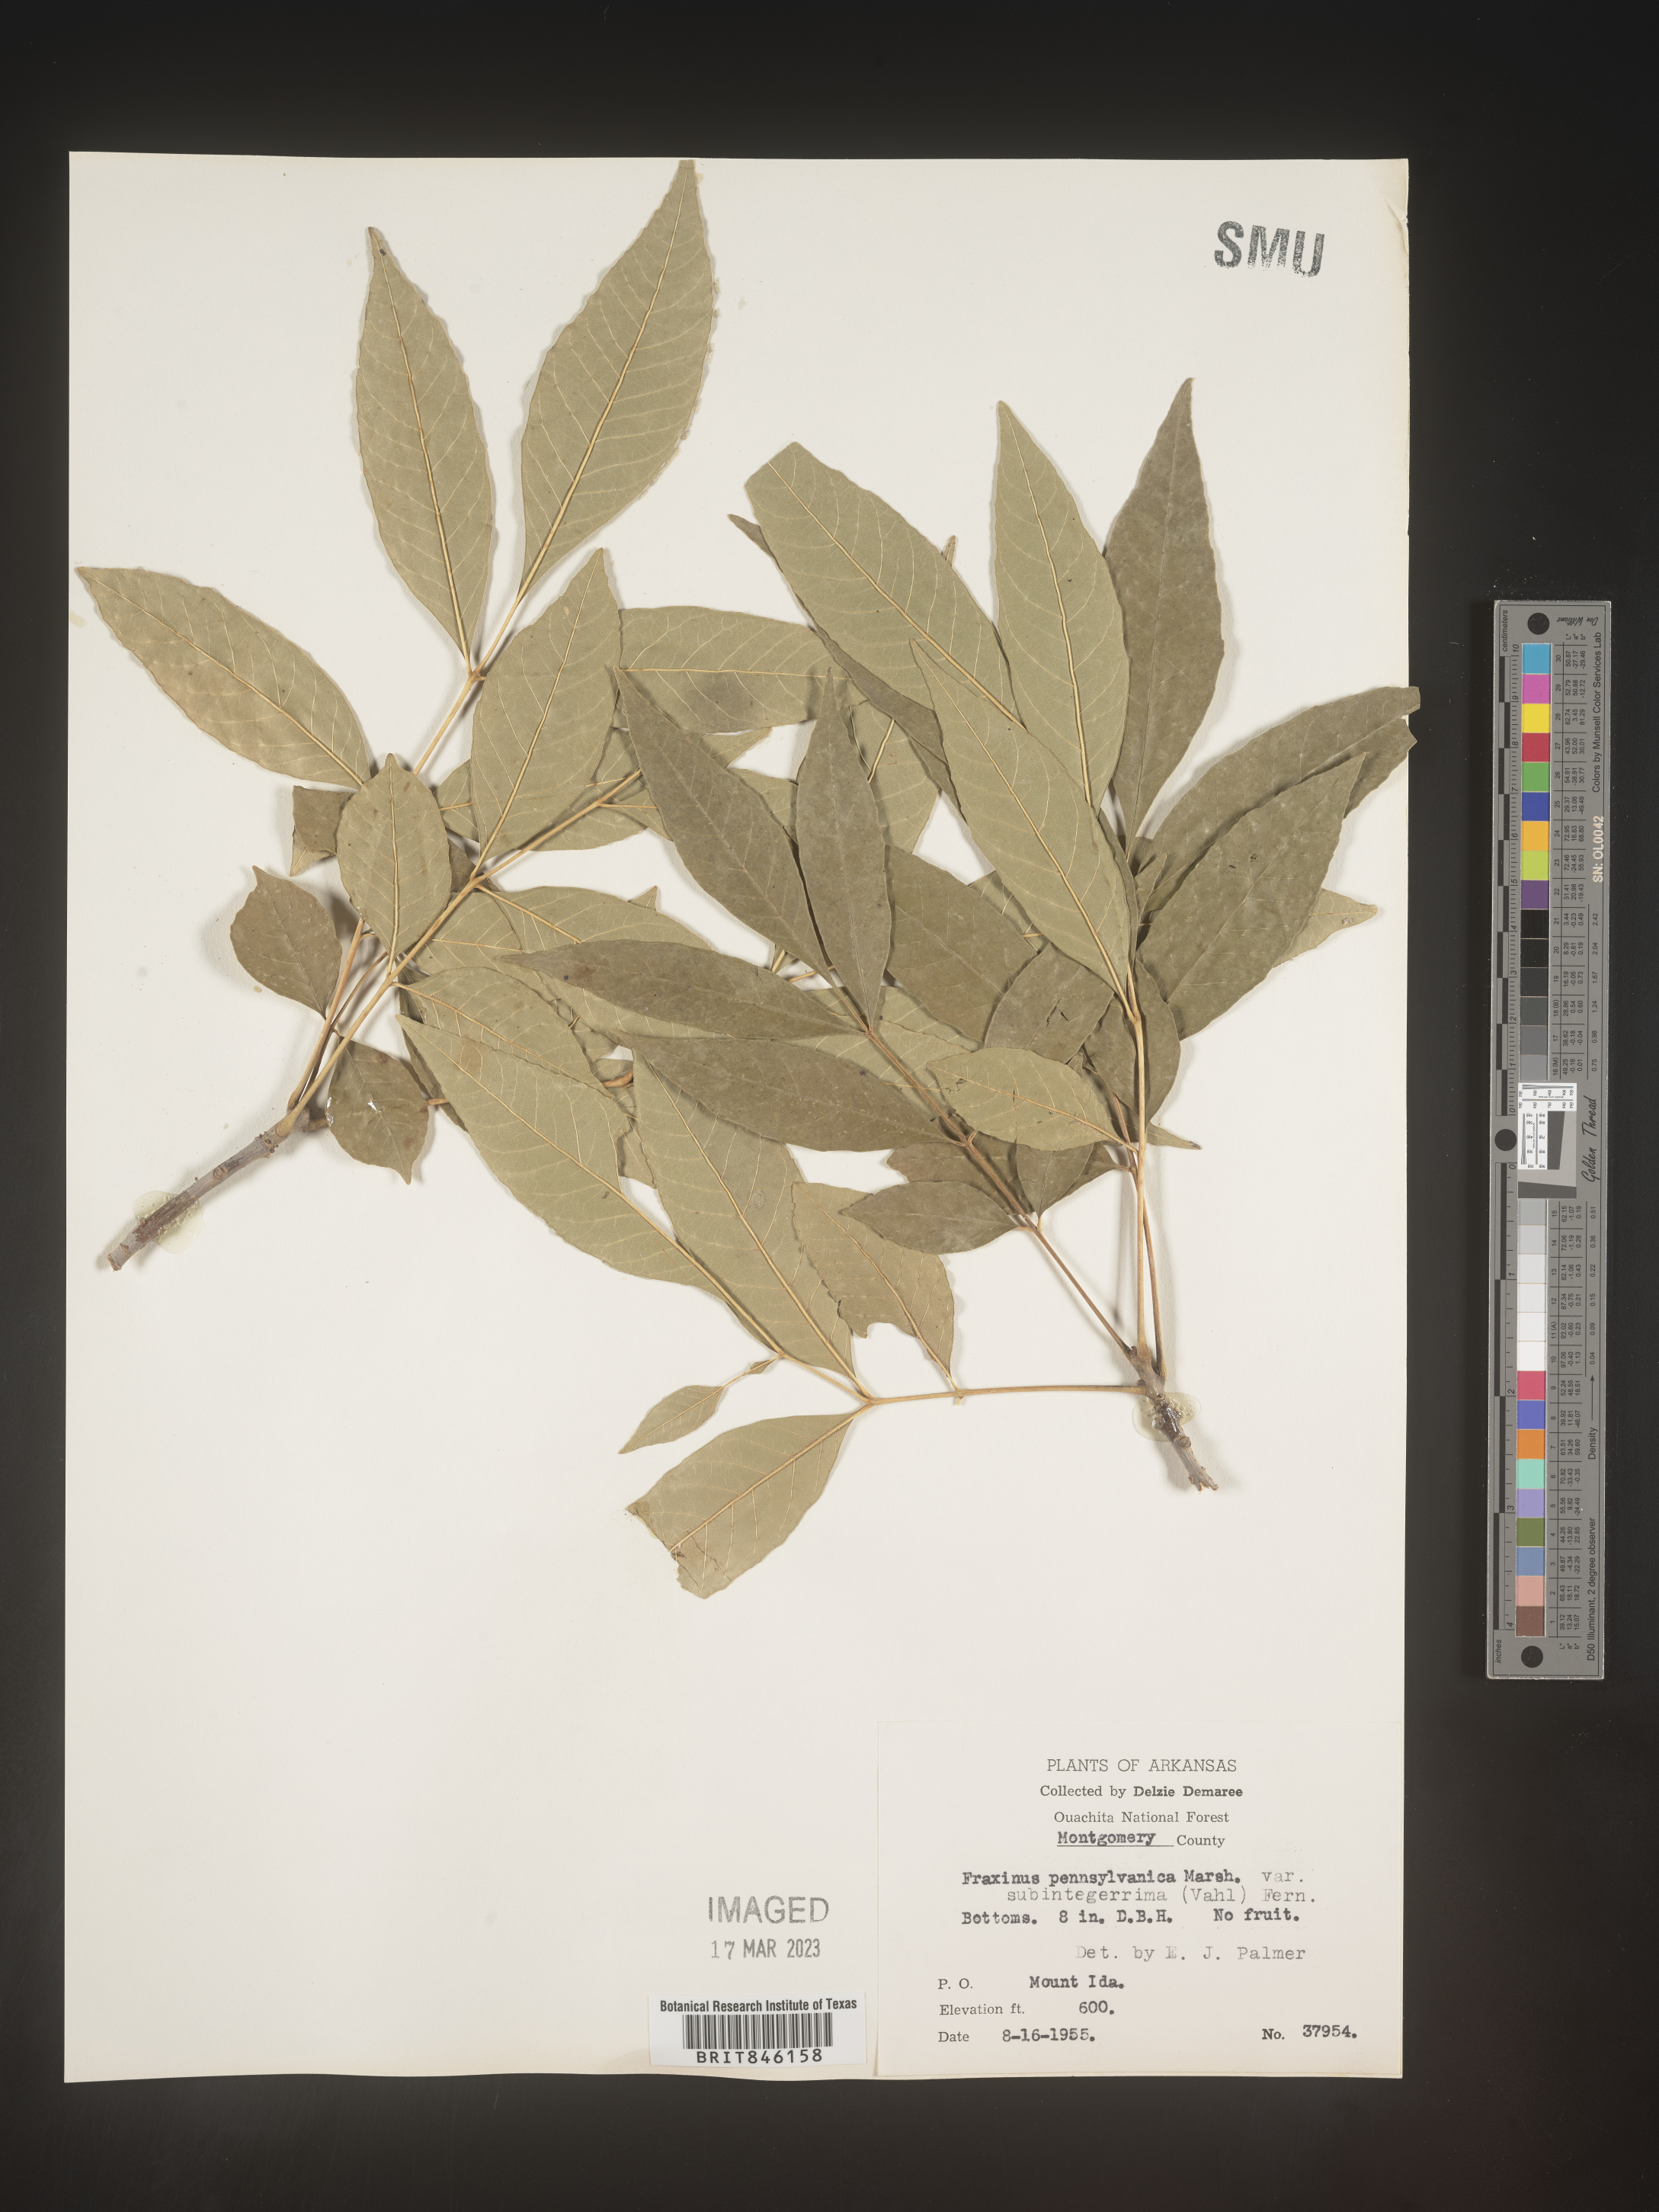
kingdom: Plantae
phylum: Tracheophyta
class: Magnoliopsida
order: Lamiales
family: Oleaceae
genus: Fraxinus
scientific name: Fraxinus pennsylvanica
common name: Green ash
